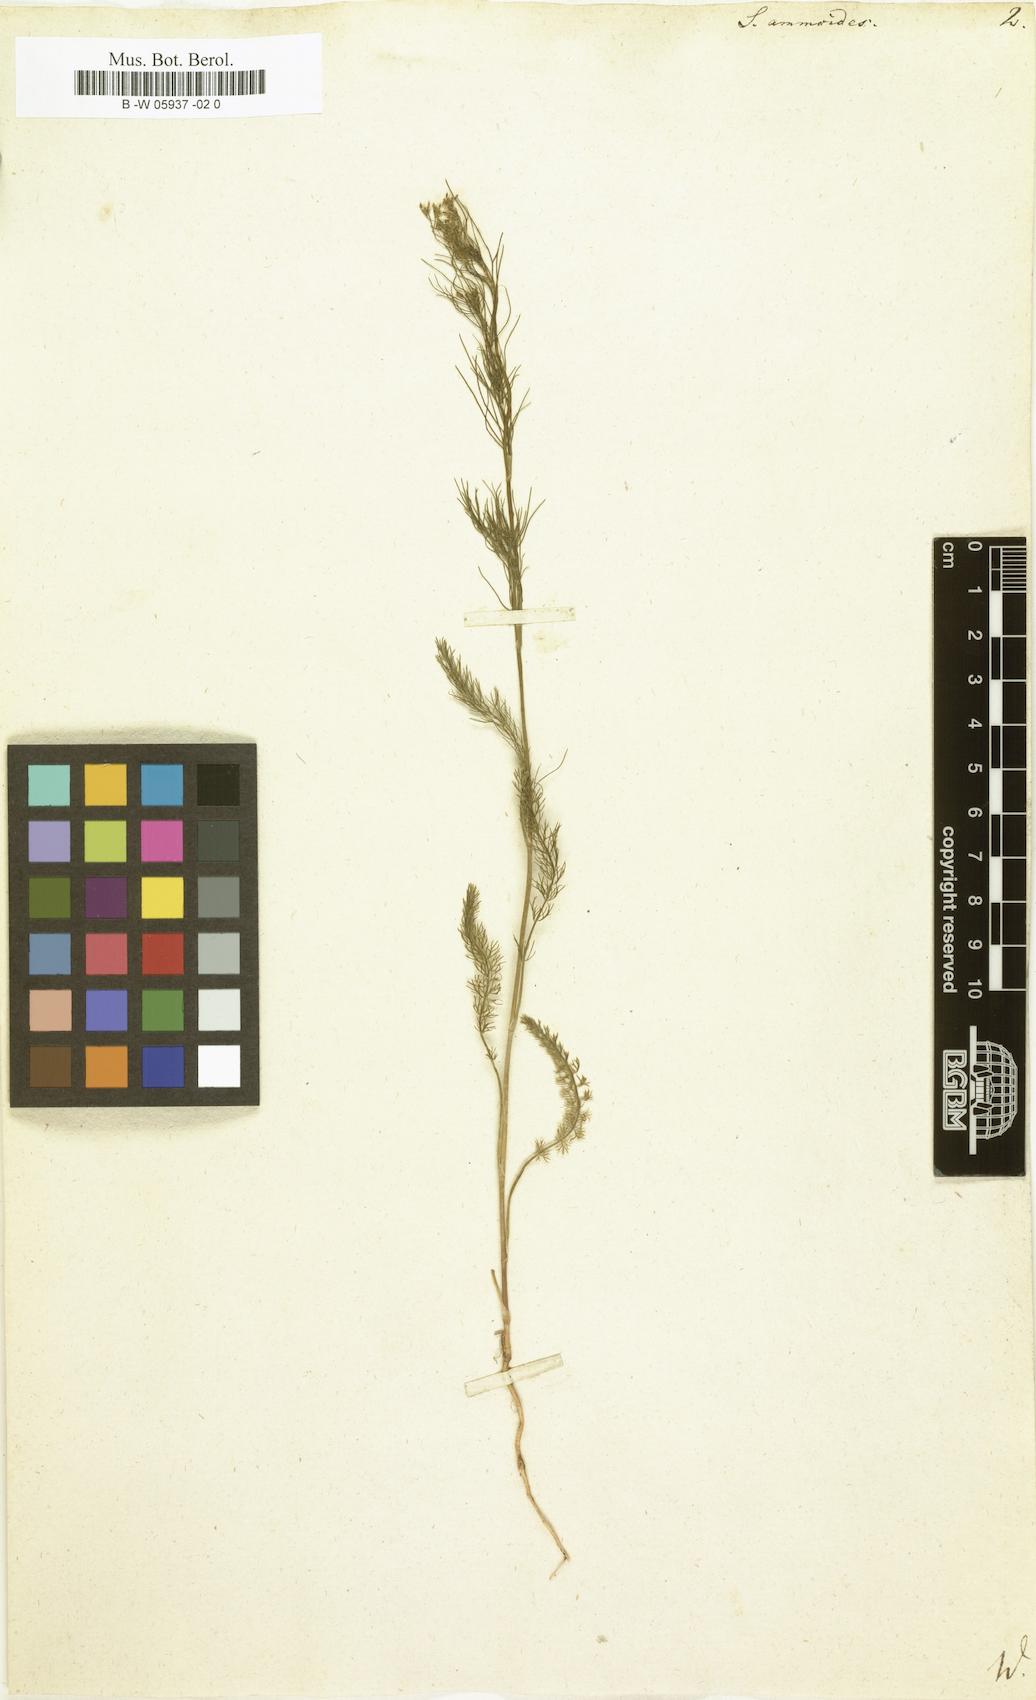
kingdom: Plantae
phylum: Tracheophyta
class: Magnoliopsida
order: Apiales
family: Apiaceae
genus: Ammoides
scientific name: Ammoides pusilla
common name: Cerfolium
